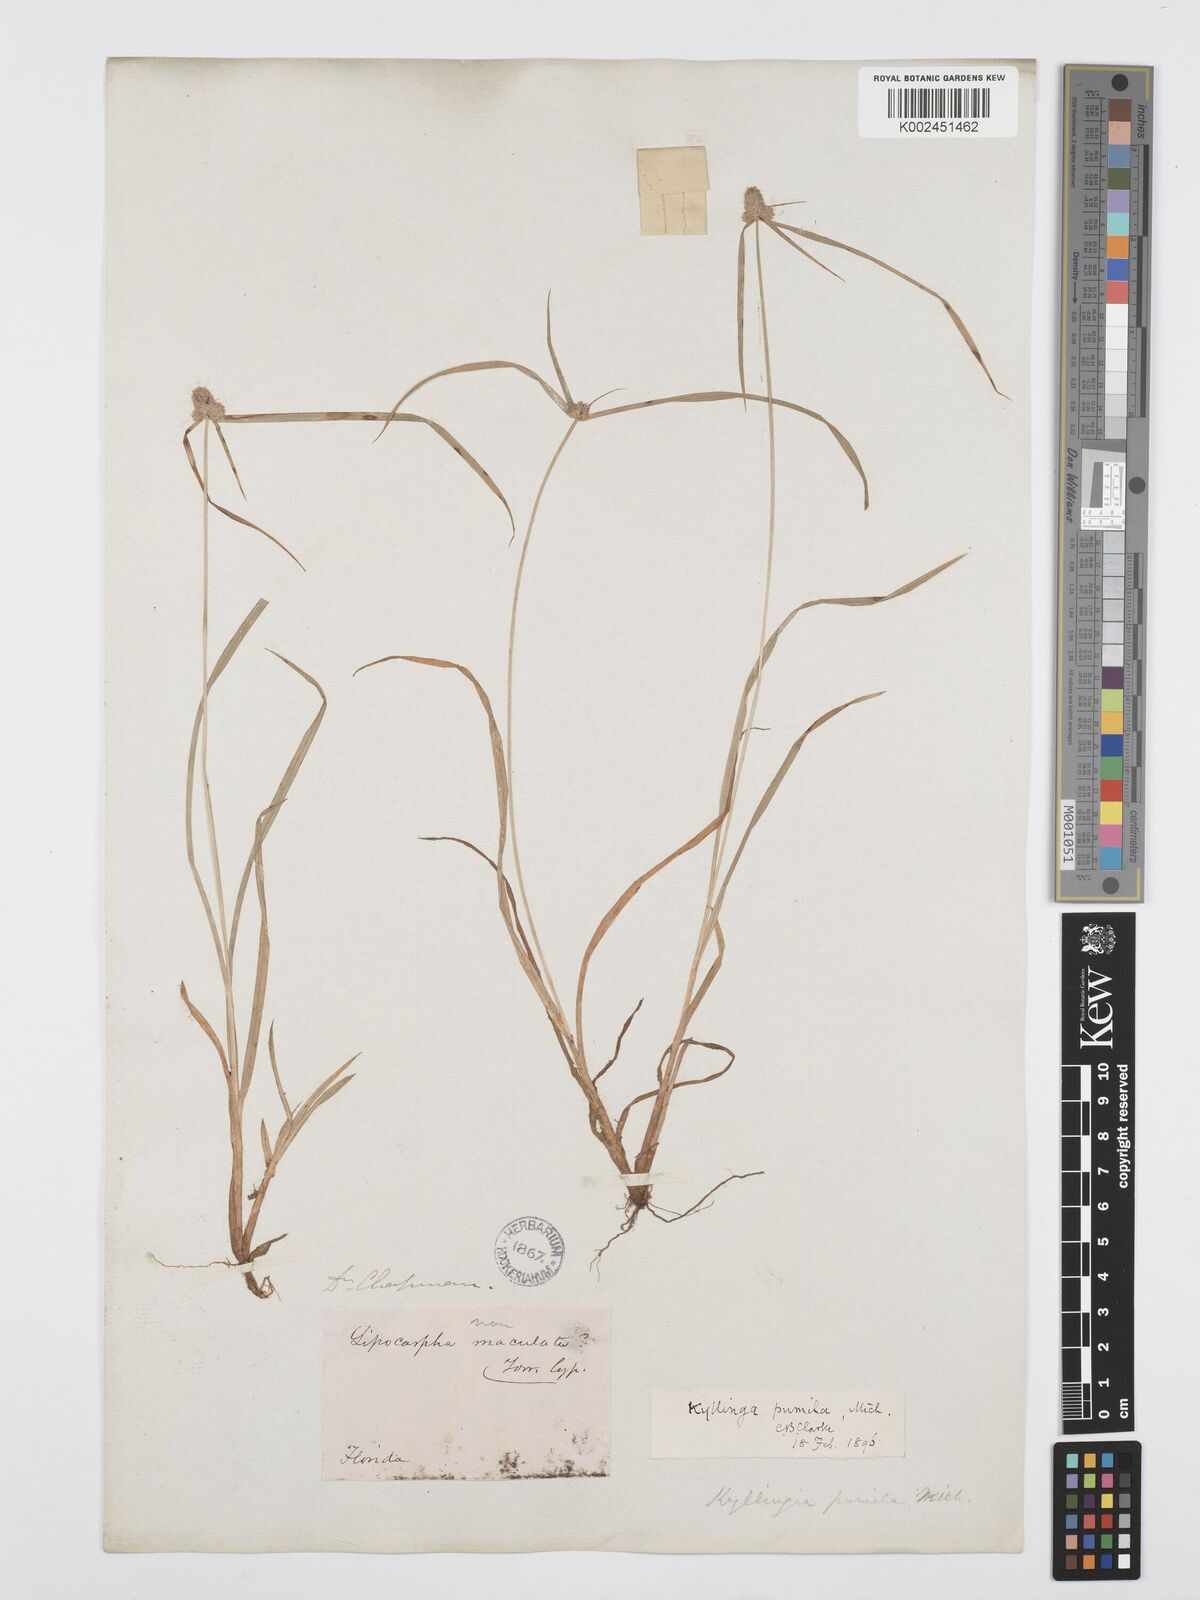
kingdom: Plantae
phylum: Tracheophyta
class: Liliopsida
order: Poales
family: Cyperaceae
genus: Cyperus
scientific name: Cyperus
